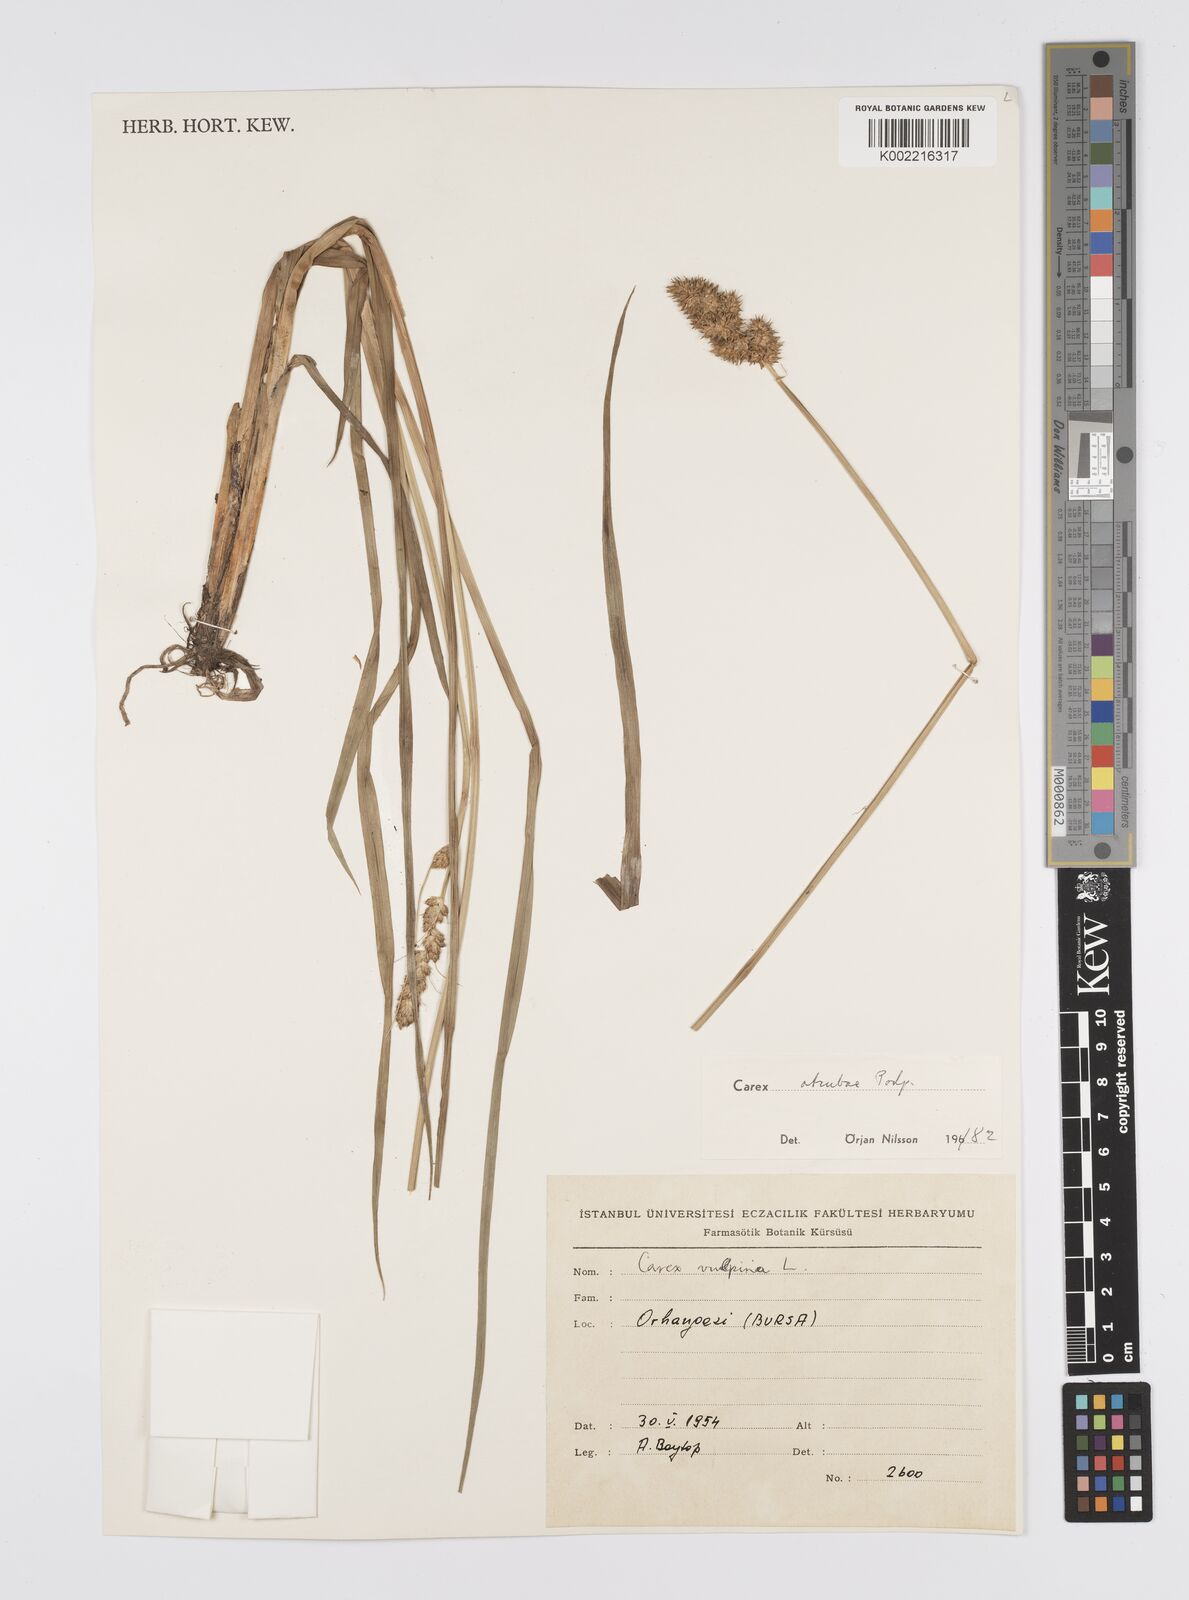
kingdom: Plantae
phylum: Tracheophyta
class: Liliopsida
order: Poales
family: Cyperaceae
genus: Carex
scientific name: Carex otrubae
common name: False fox-sedge
